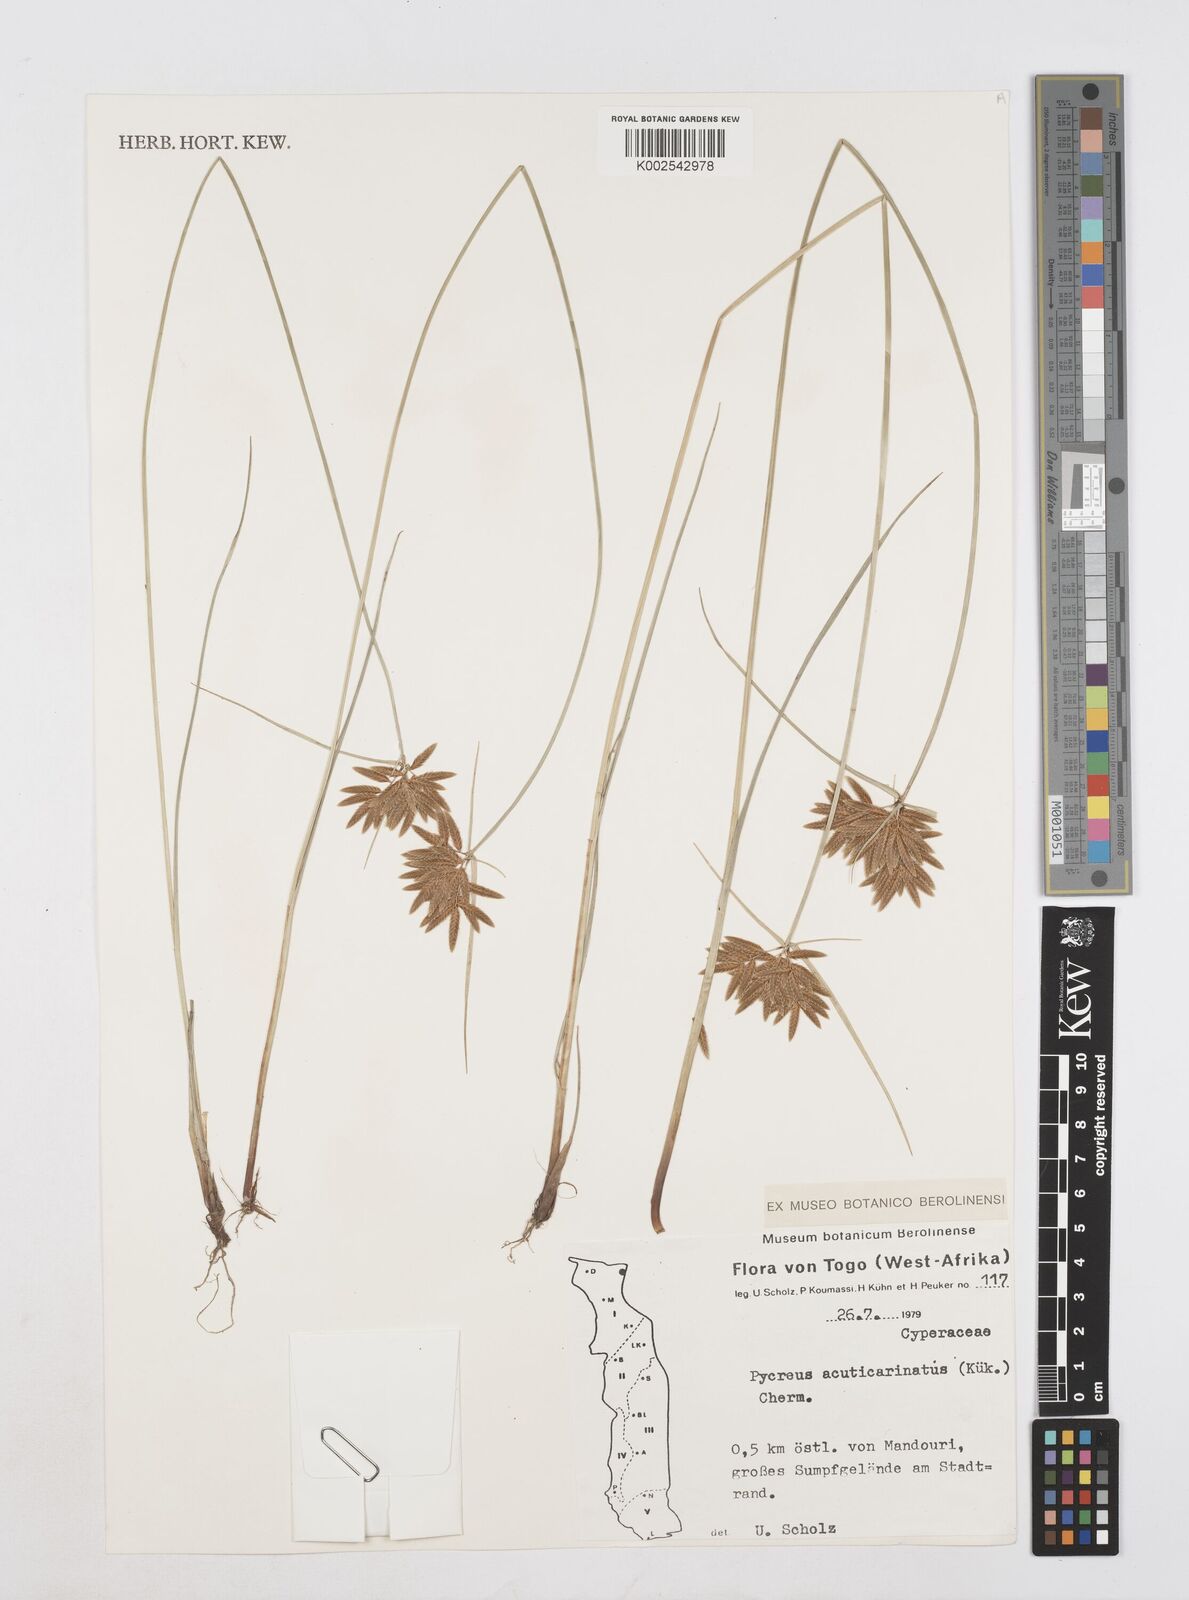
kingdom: Plantae
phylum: Tracheophyta
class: Liliopsida
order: Poales
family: Cyperaceae
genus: Cyperus
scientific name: Cyperus acuticarinatus
